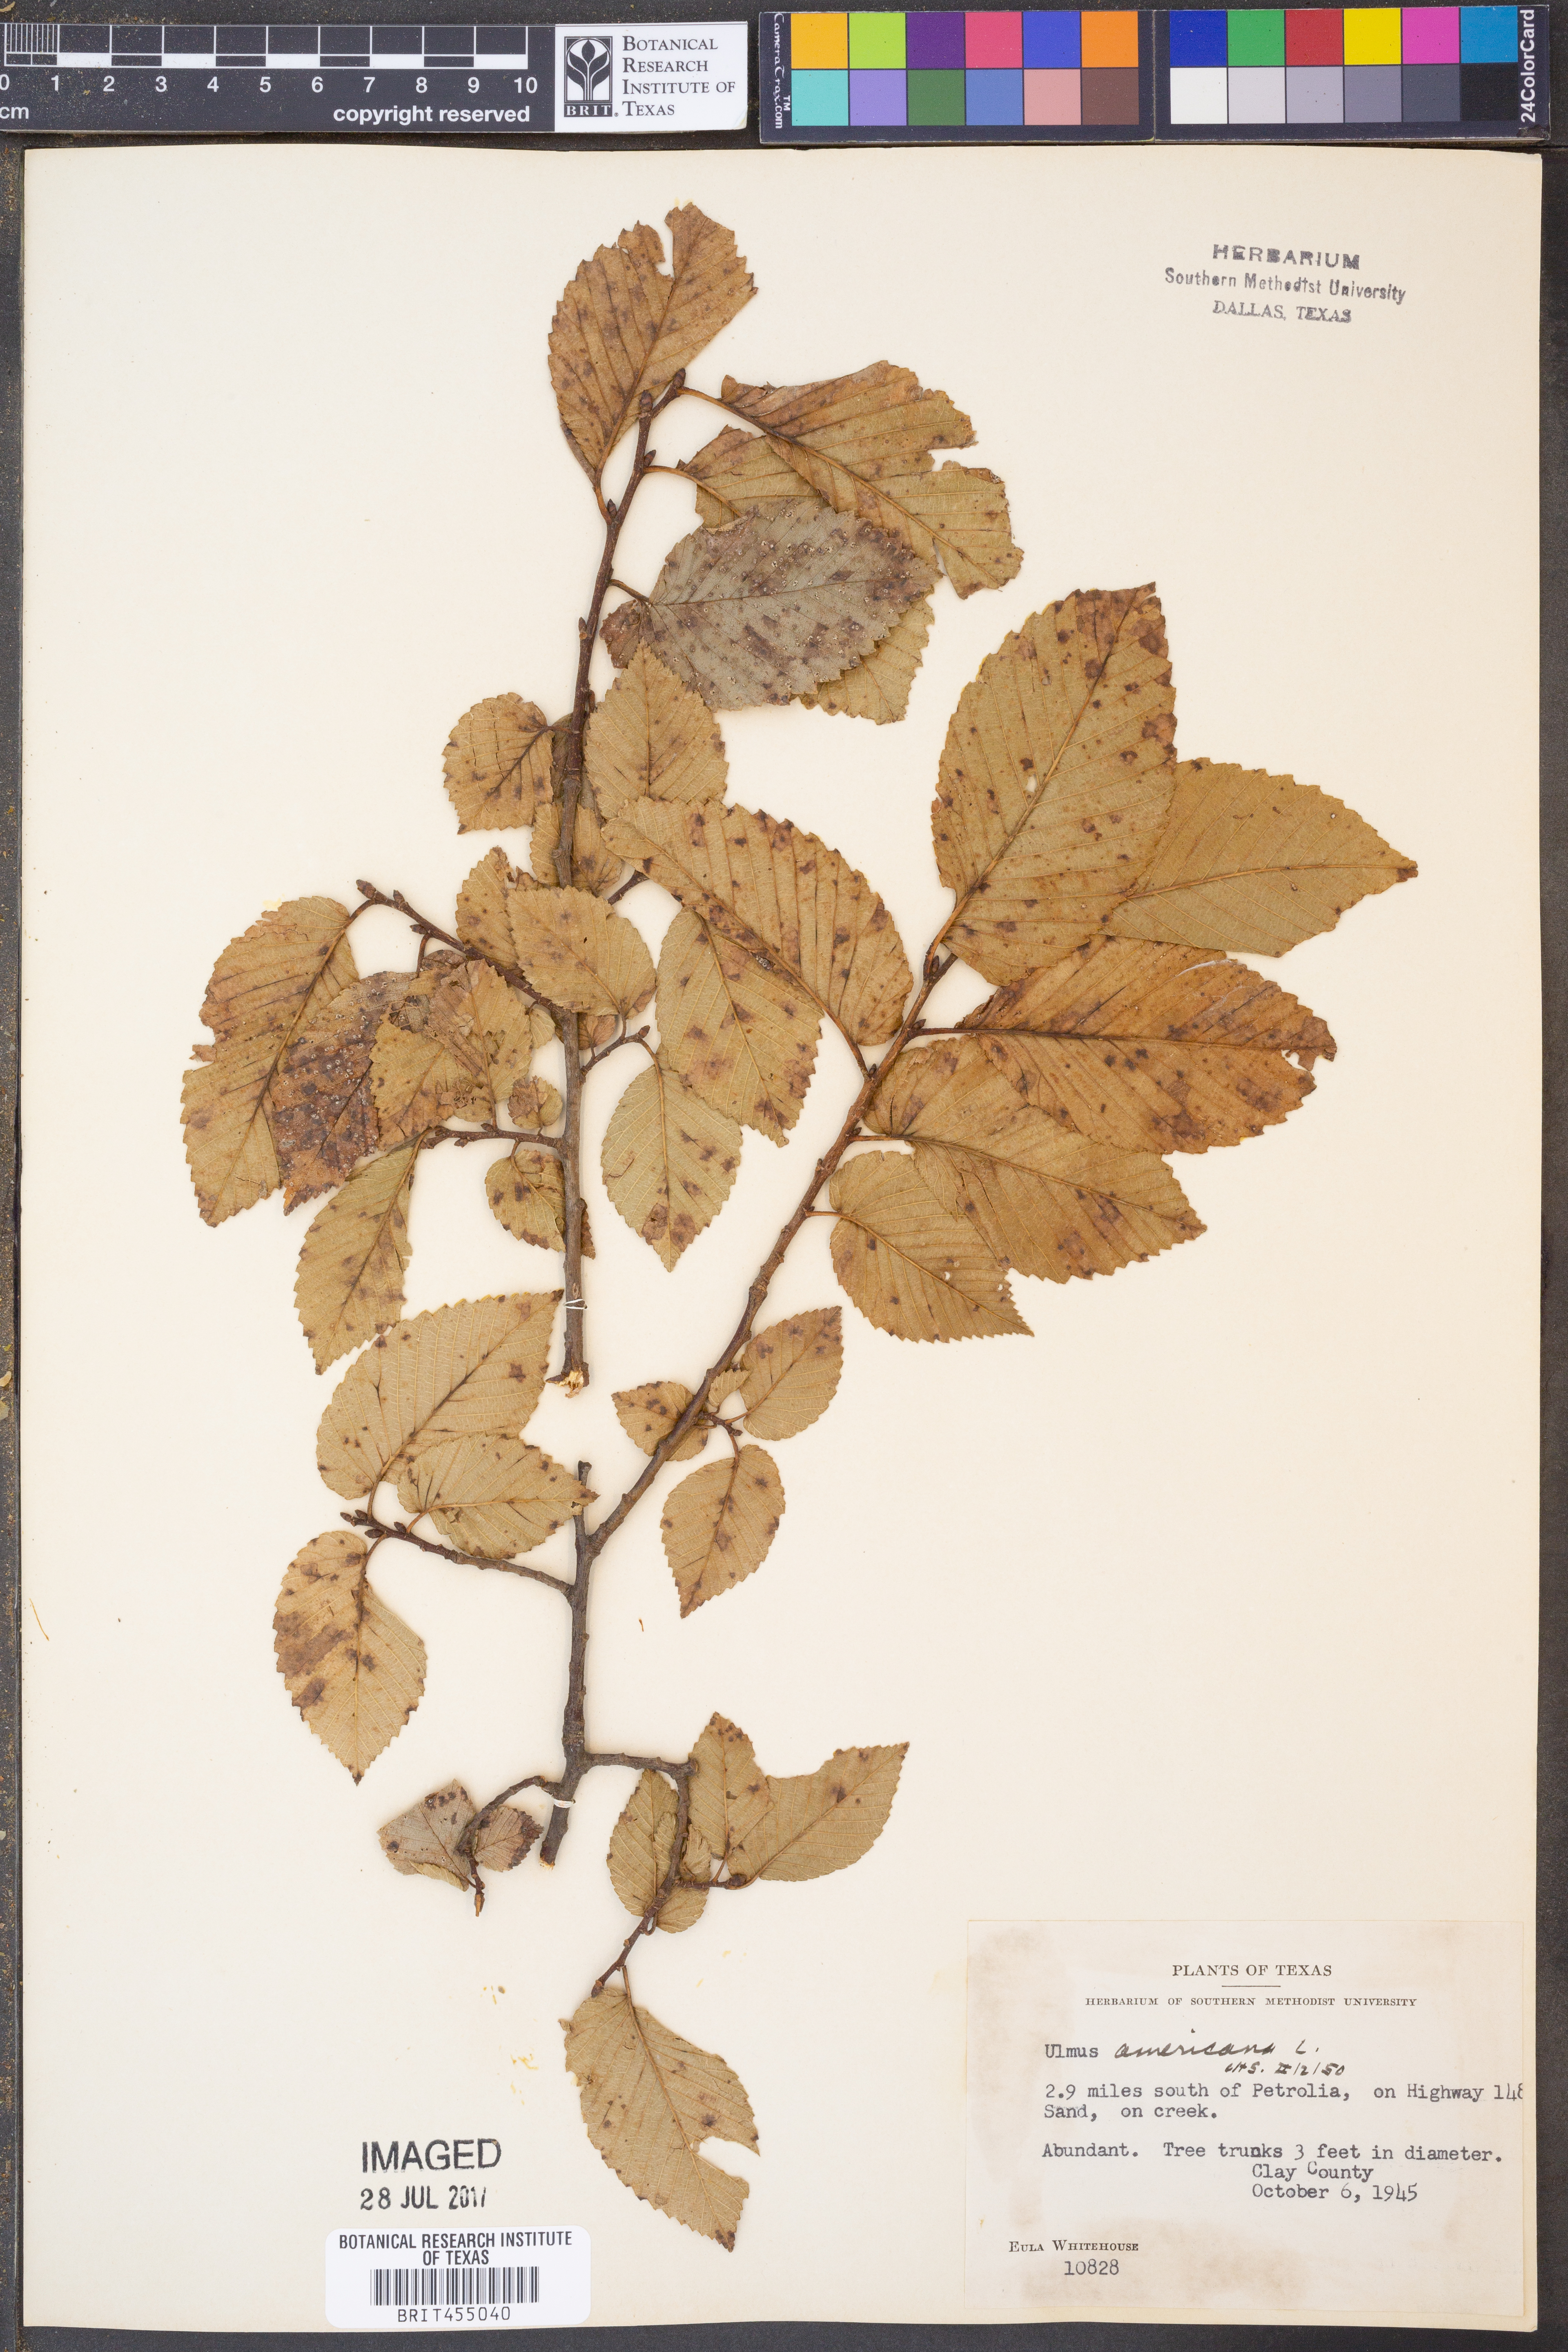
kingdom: Plantae
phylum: Tracheophyta
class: Magnoliopsida
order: Rosales
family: Ulmaceae
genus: Ulmus
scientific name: Ulmus americana
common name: American elm
